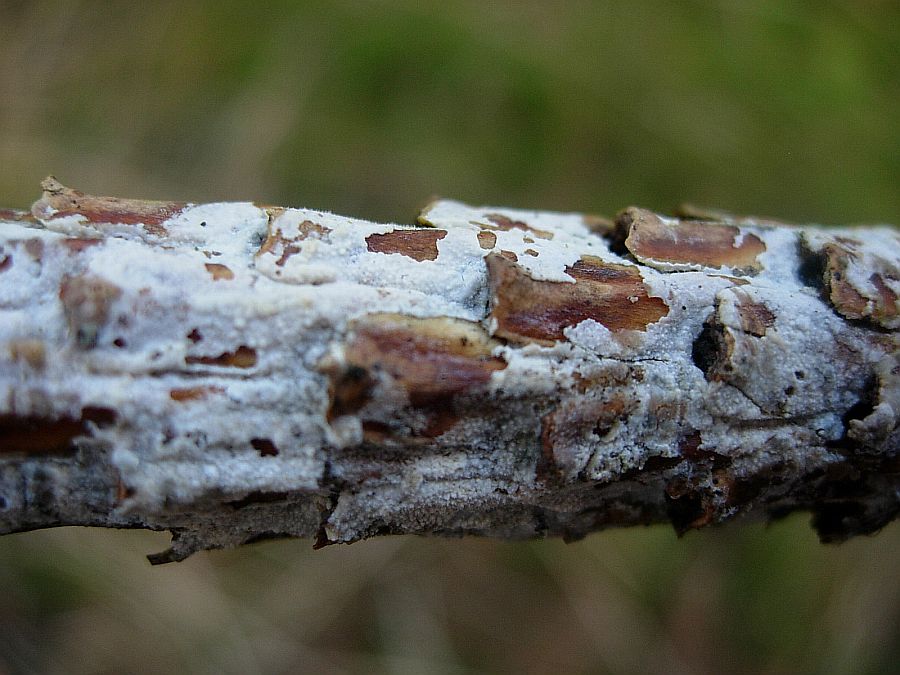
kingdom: Fungi
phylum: Basidiomycota
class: Agaricomycetes
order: Polyporales
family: Hyphodermataceae
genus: Hyphoderma
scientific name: Hyphoderma setigerum
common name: håret kalkskind
